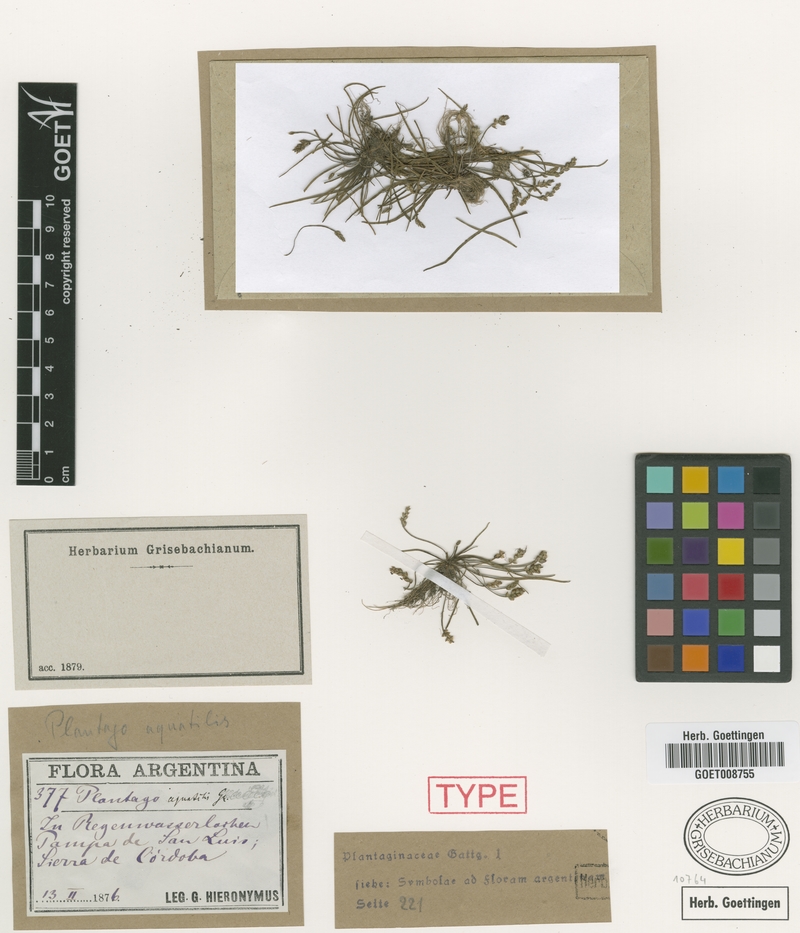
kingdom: Plantae
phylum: Tracheophyta
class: Magnoliopsida
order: Lamiales
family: Plantaginaceae
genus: Plantago
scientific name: Plantago heterophylla
